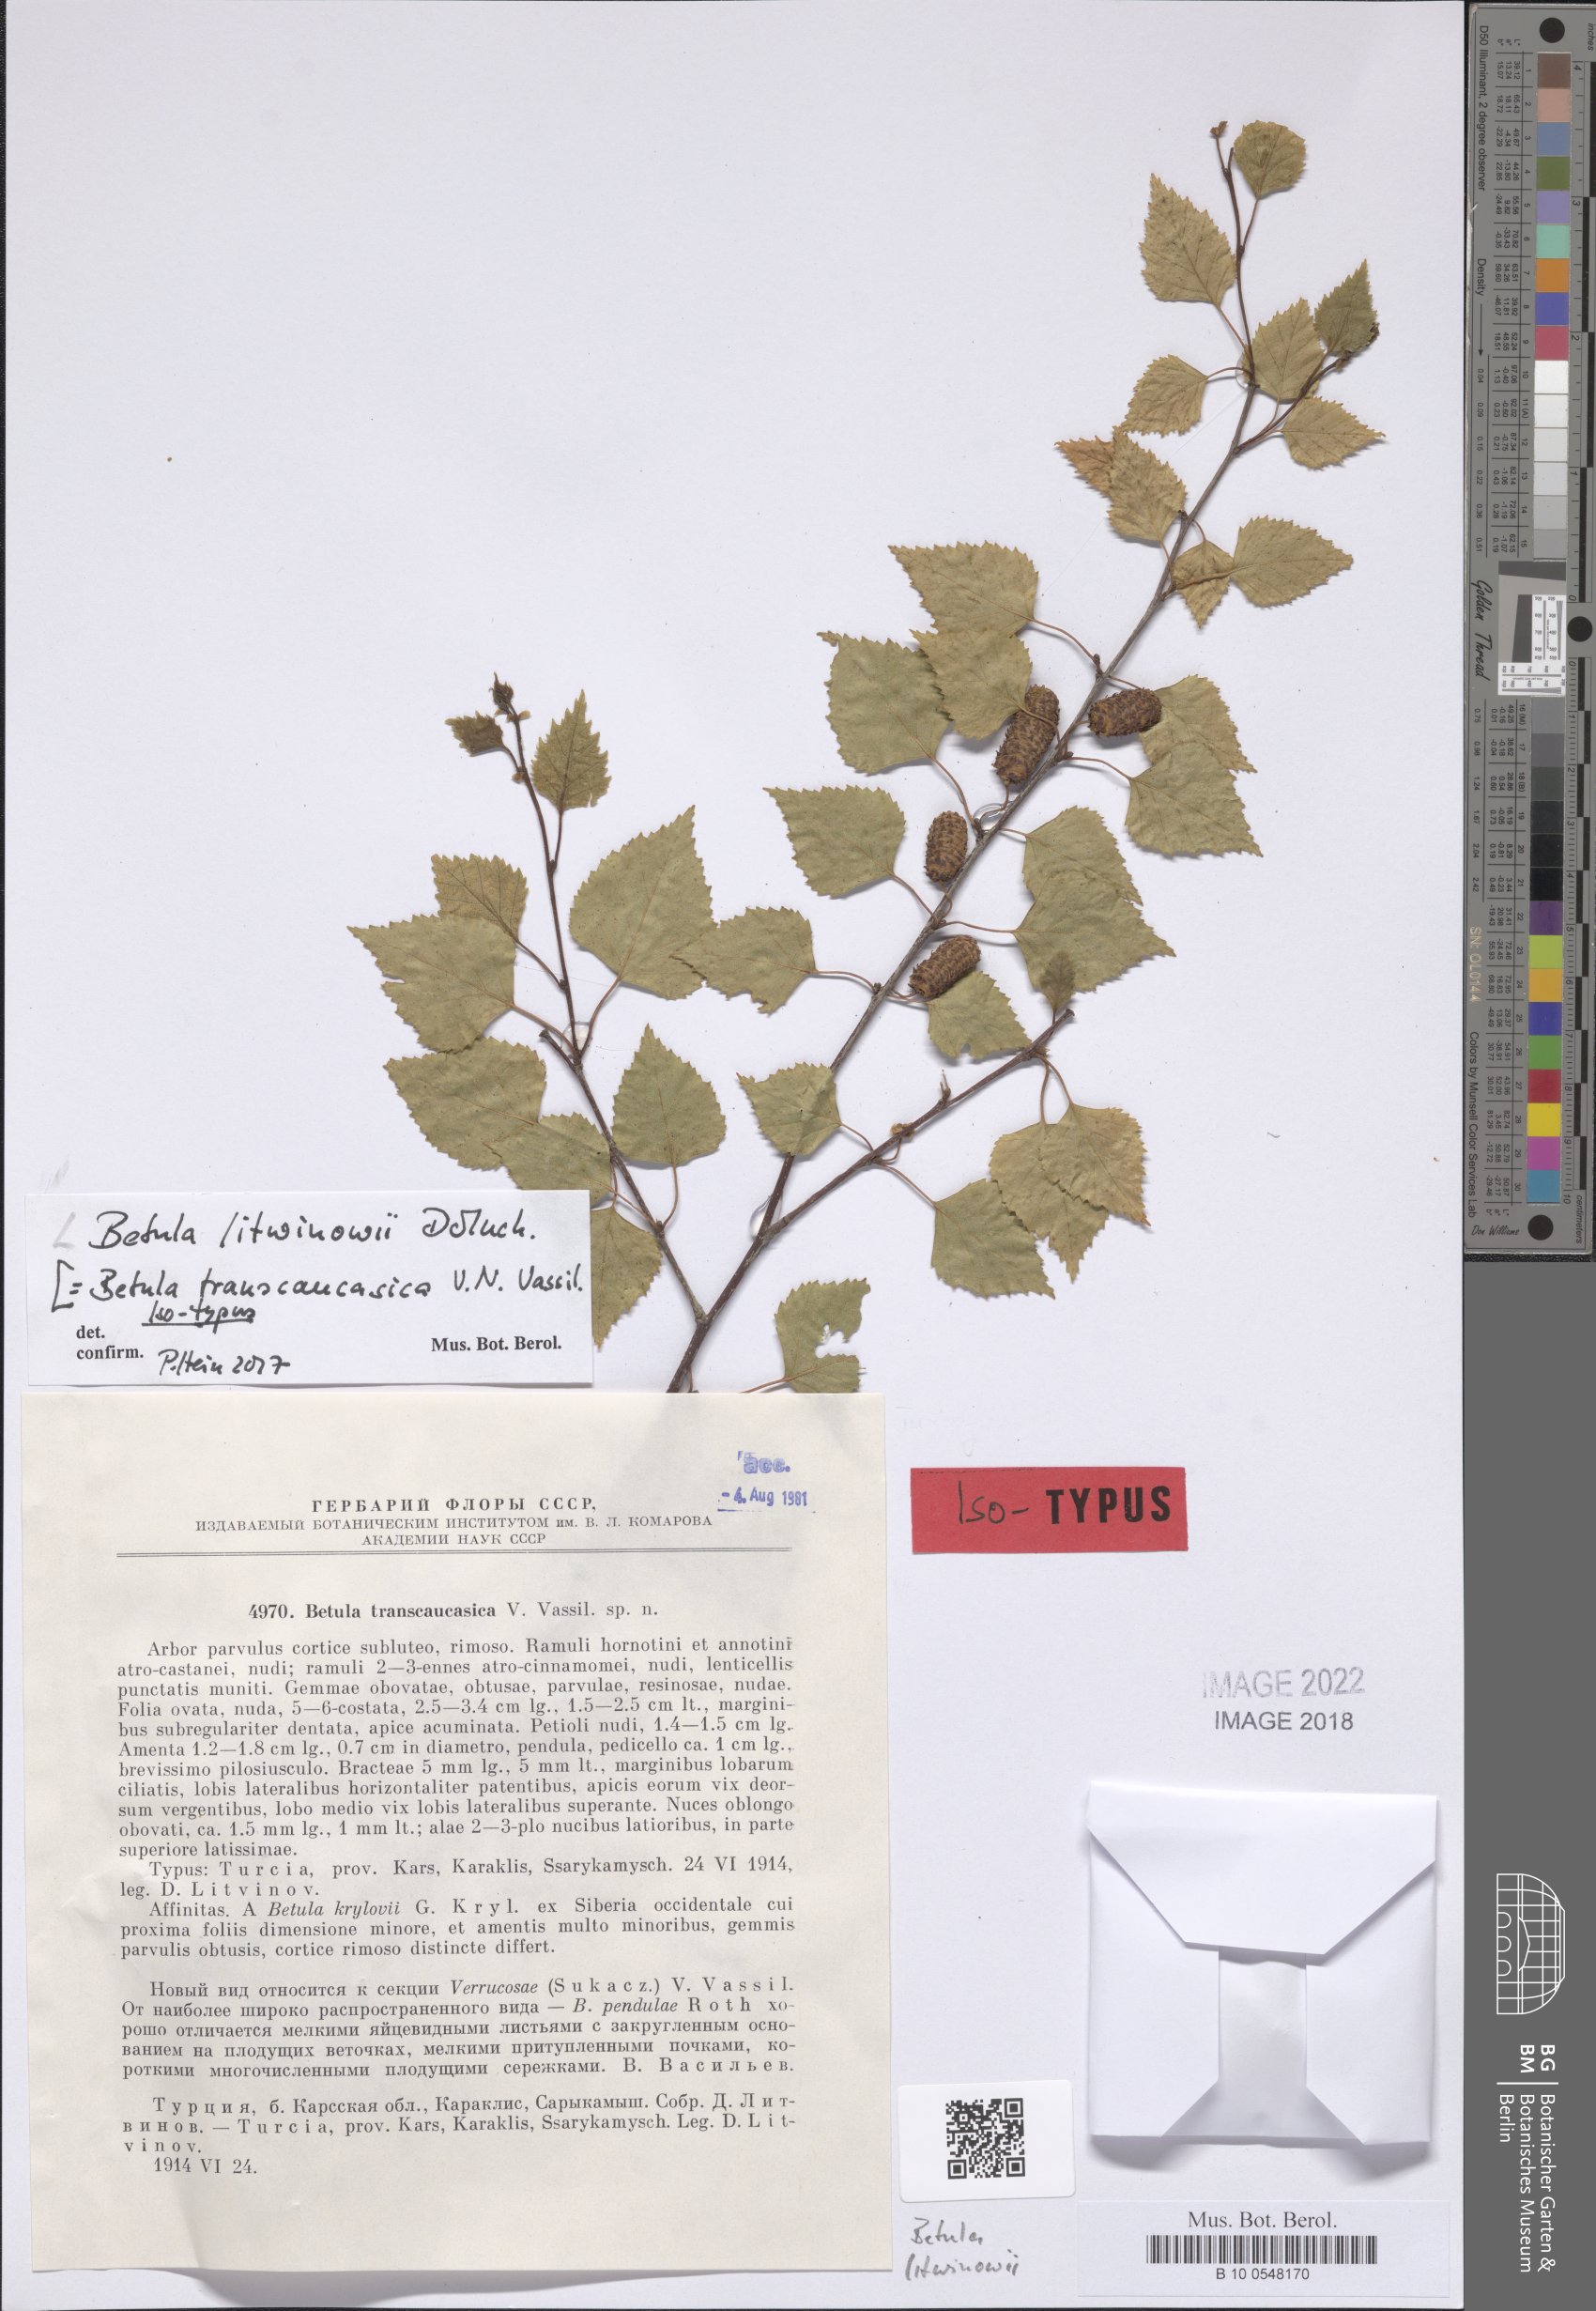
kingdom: Plantae
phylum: Tracheophyta
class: Magnoliopsida
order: Fagales
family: Betulaceae
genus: Betula
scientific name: Betula pubescens
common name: Downy birch
